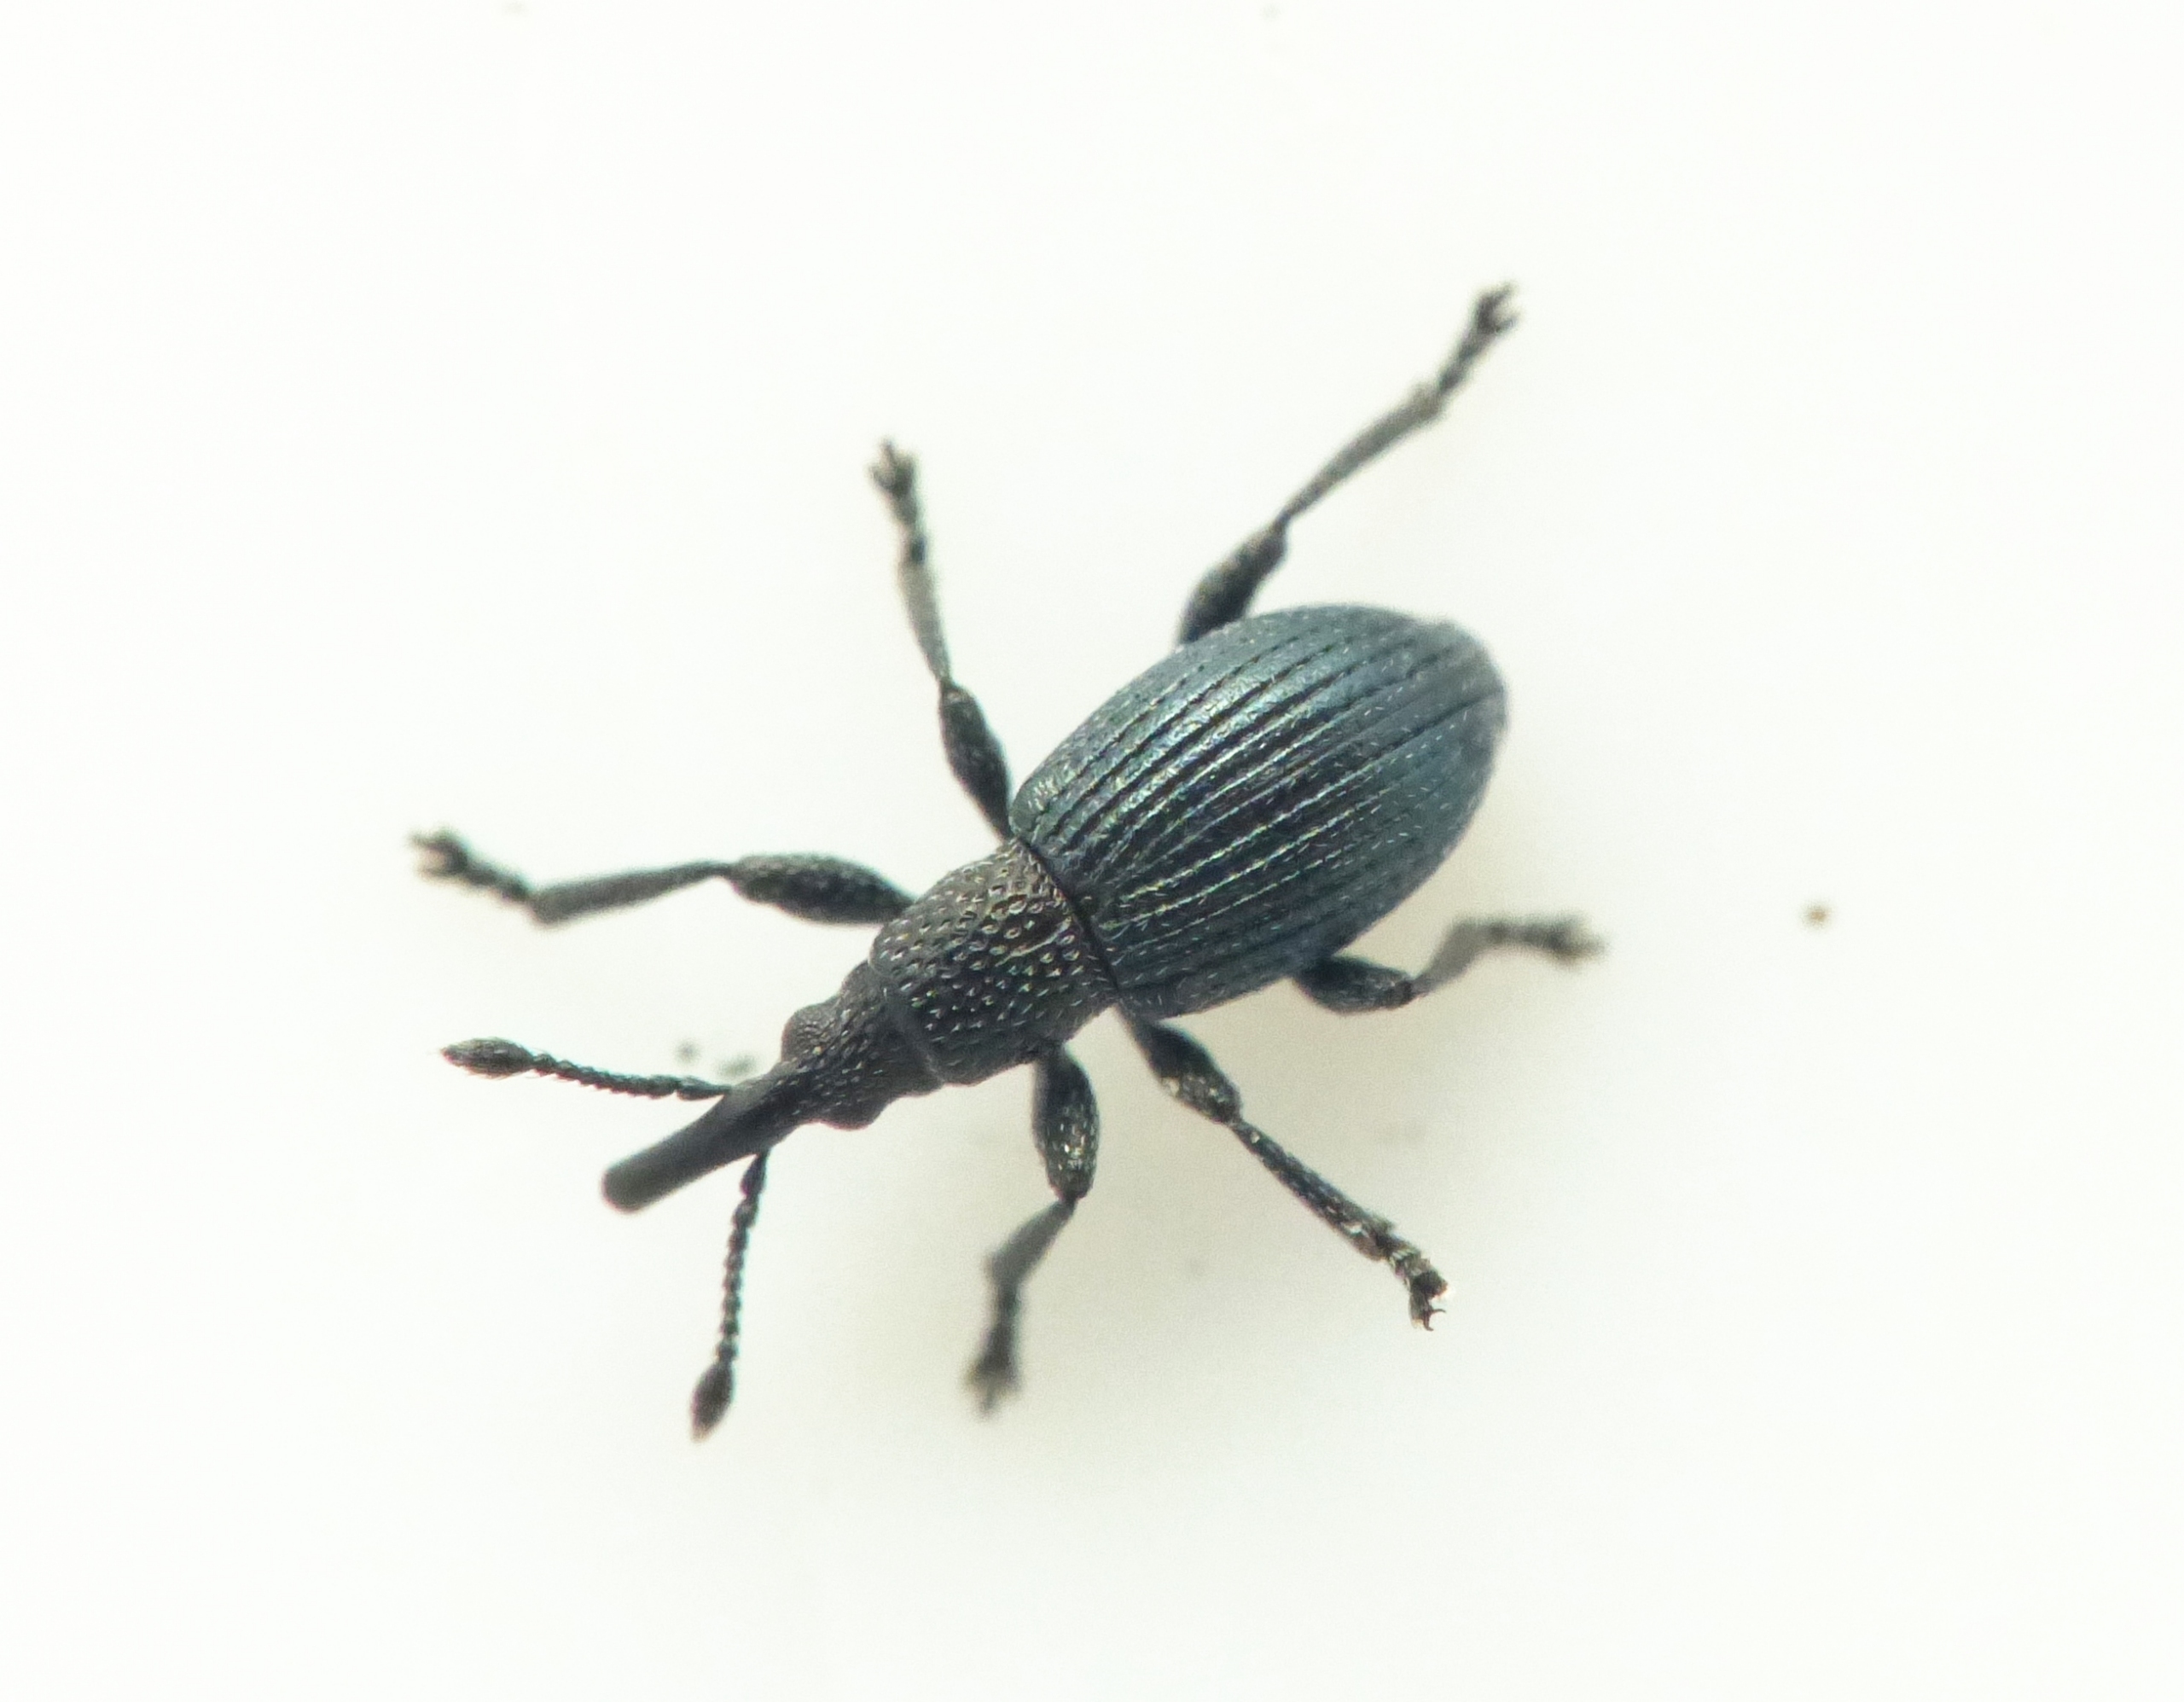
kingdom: Animalia
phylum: Arthropoda
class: Insecta
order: Coleoptera
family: Apionidae
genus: Ceratapion
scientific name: Ceratapion onopordi
